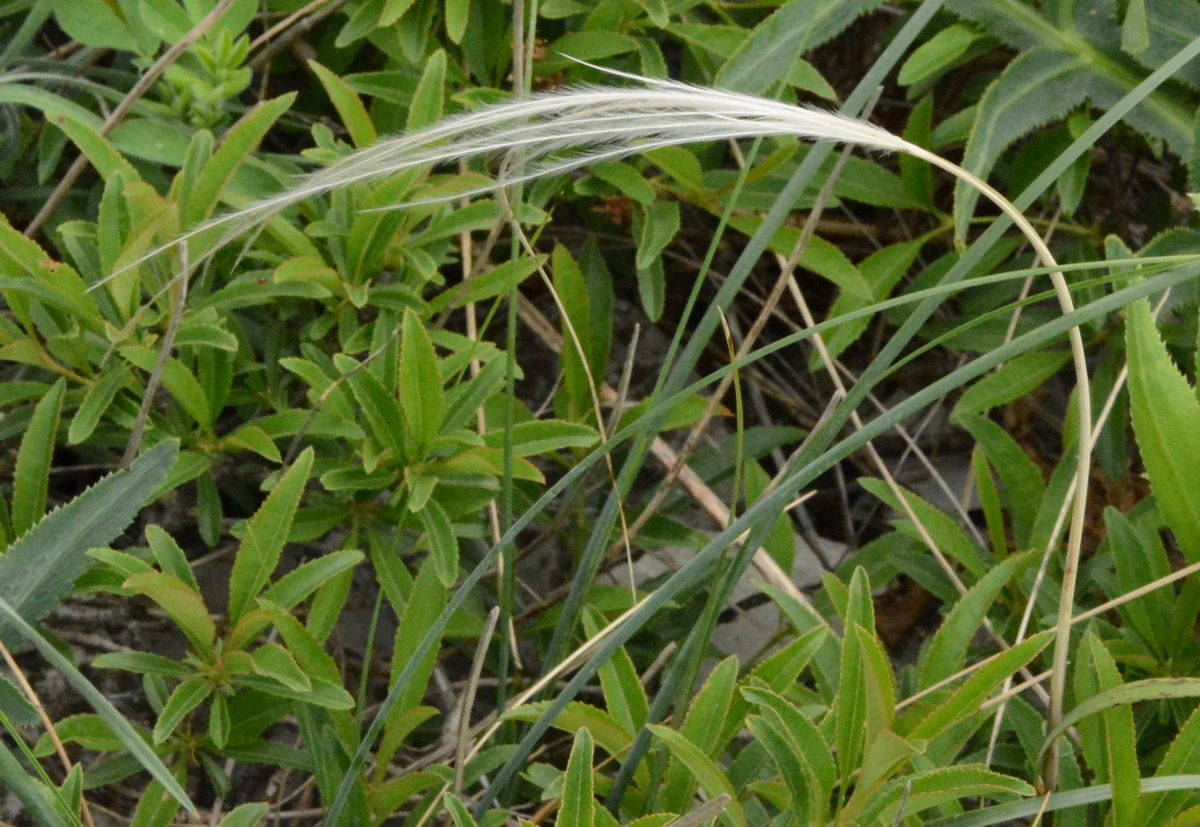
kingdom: Plantae
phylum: Tracheophyta
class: Liliopsida
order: Poales
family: Poaceae
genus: Stipa
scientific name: Stipa
